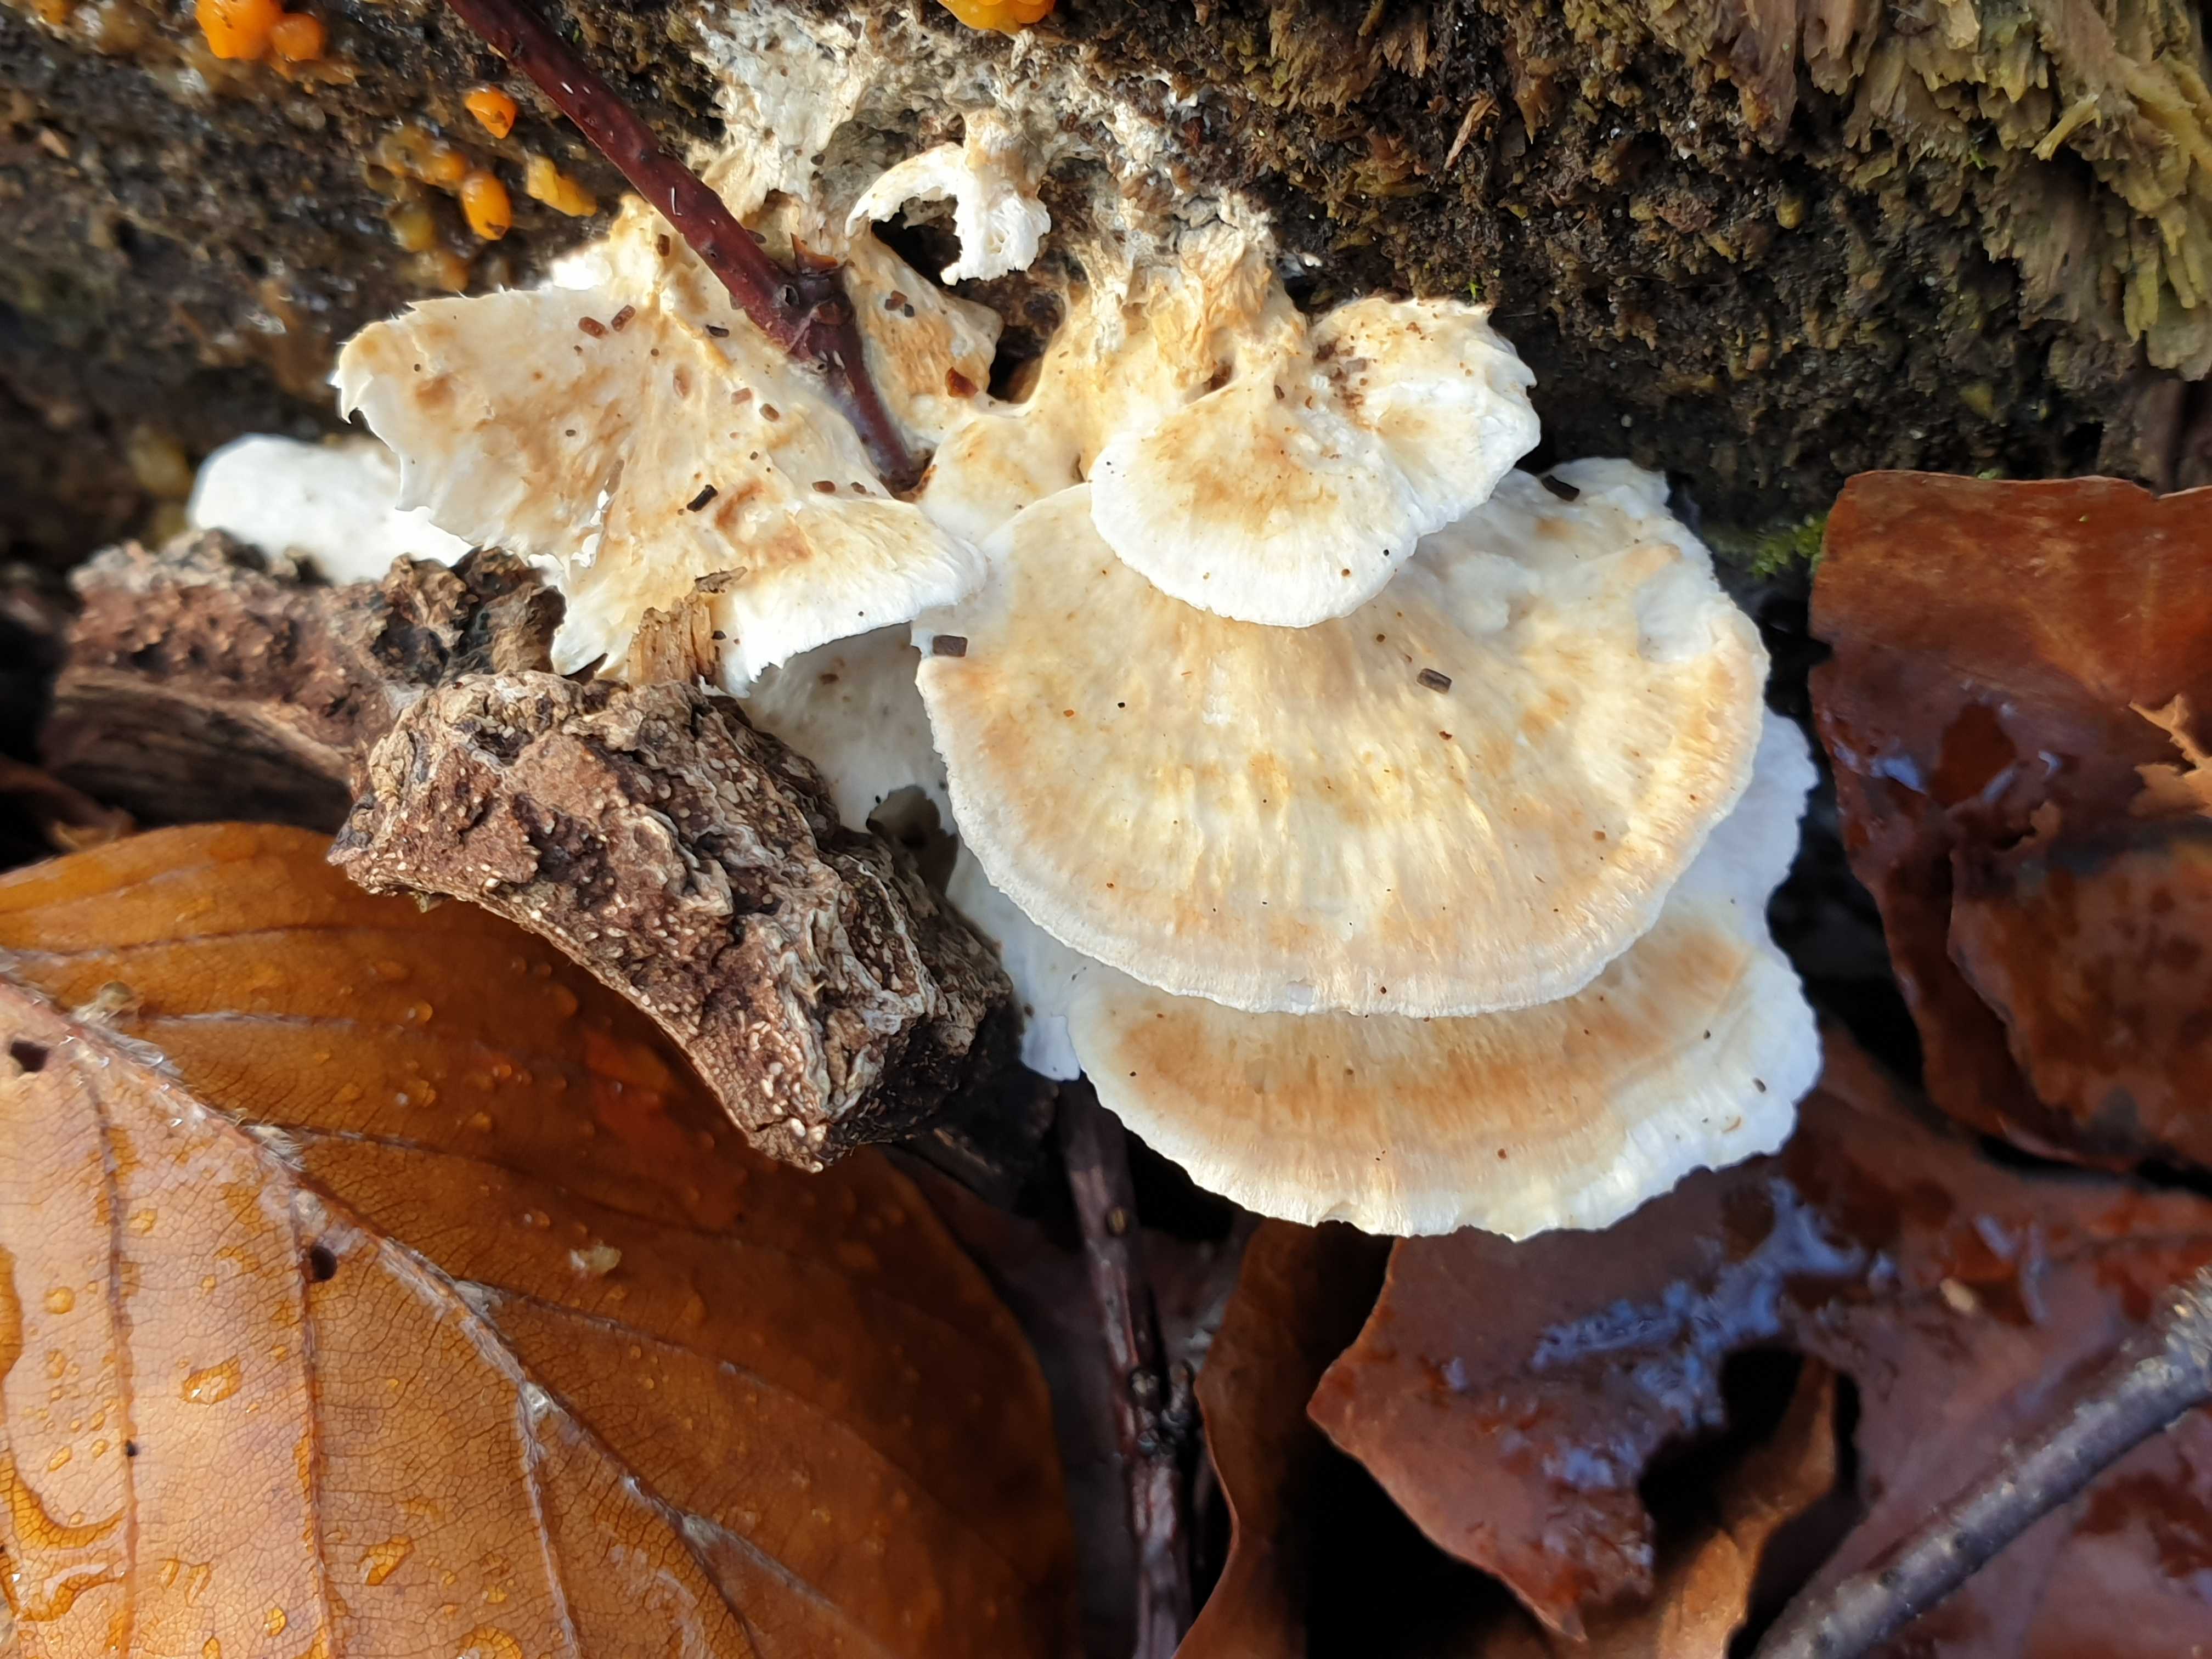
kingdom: Fungi
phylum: Basidiomycota
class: Agaricomycetes
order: Polyporales
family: Polyporaceae
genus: Trametes
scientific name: Trametes
